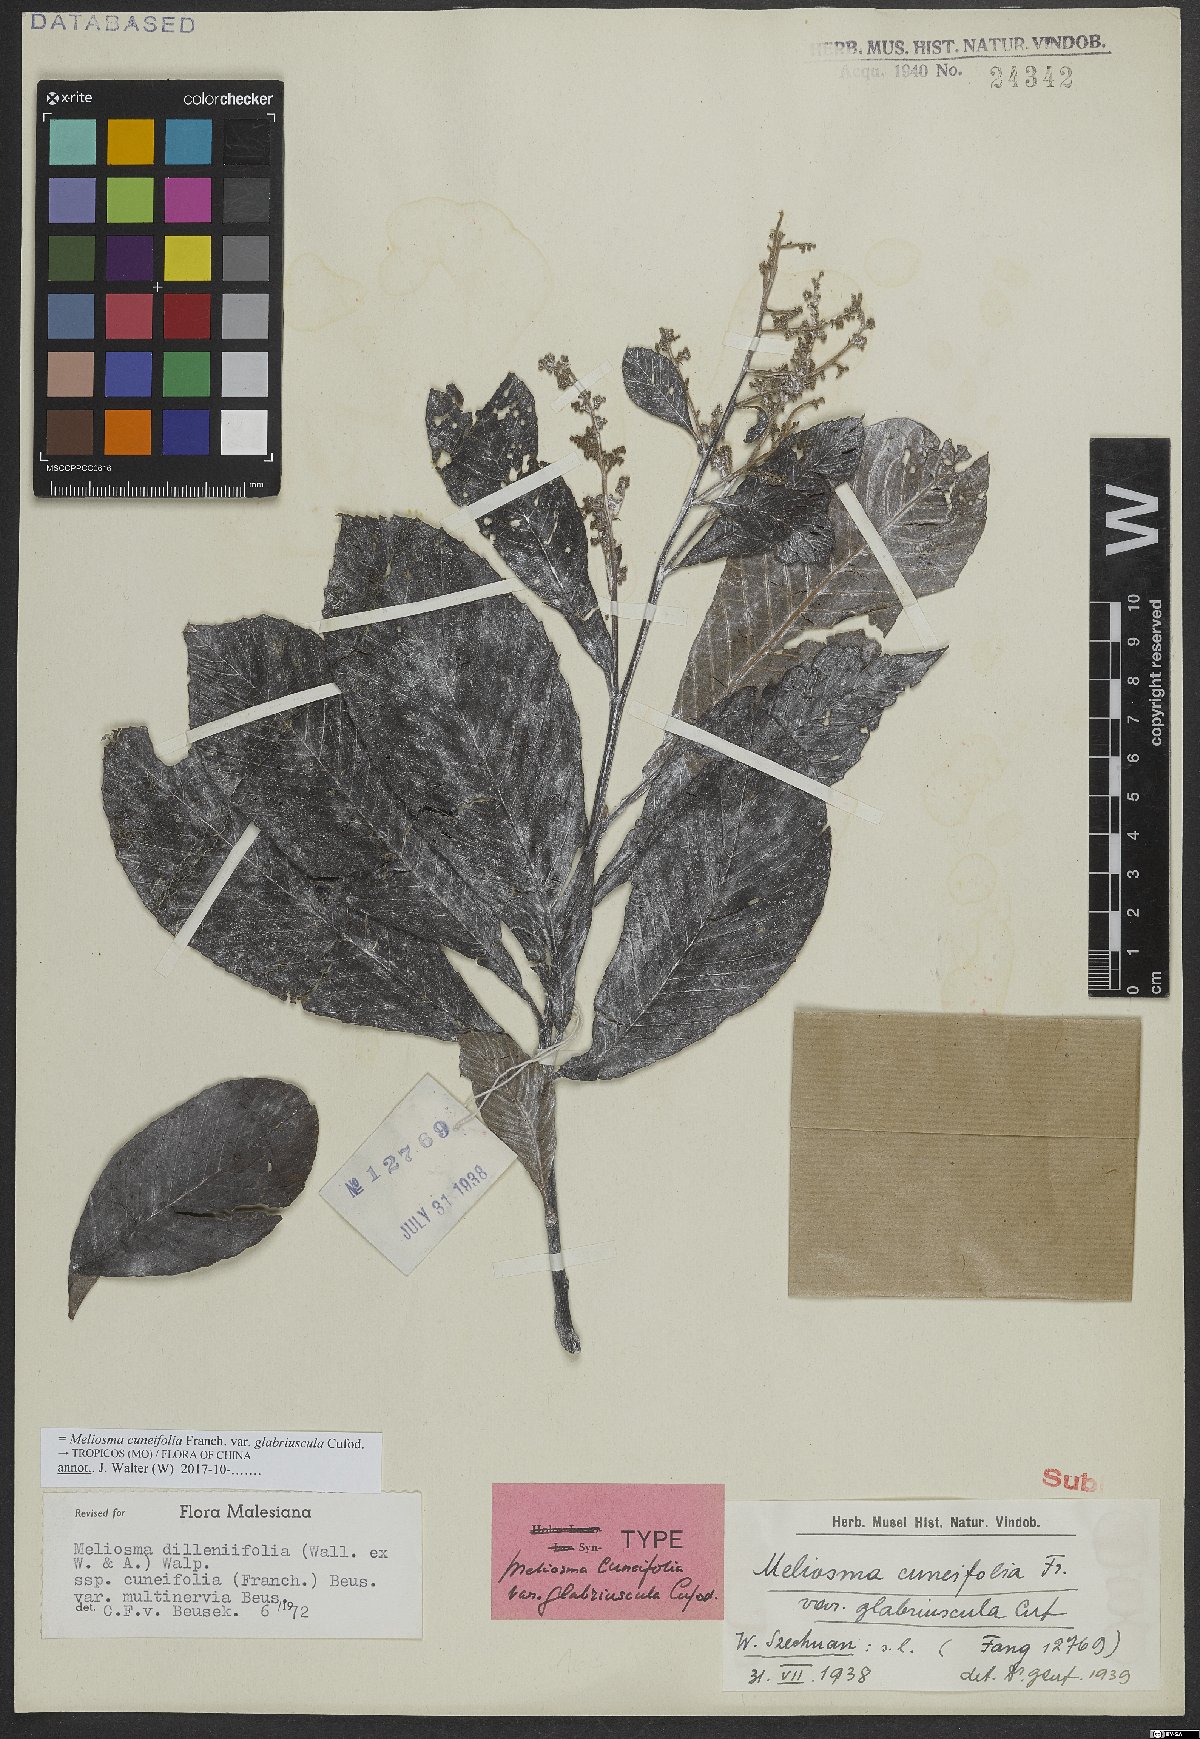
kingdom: Plantae
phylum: Tracheophyta
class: Magnoliopsida
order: Proteales
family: Sabiaceae
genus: Meliosma
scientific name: Meliosma cuneifolia
